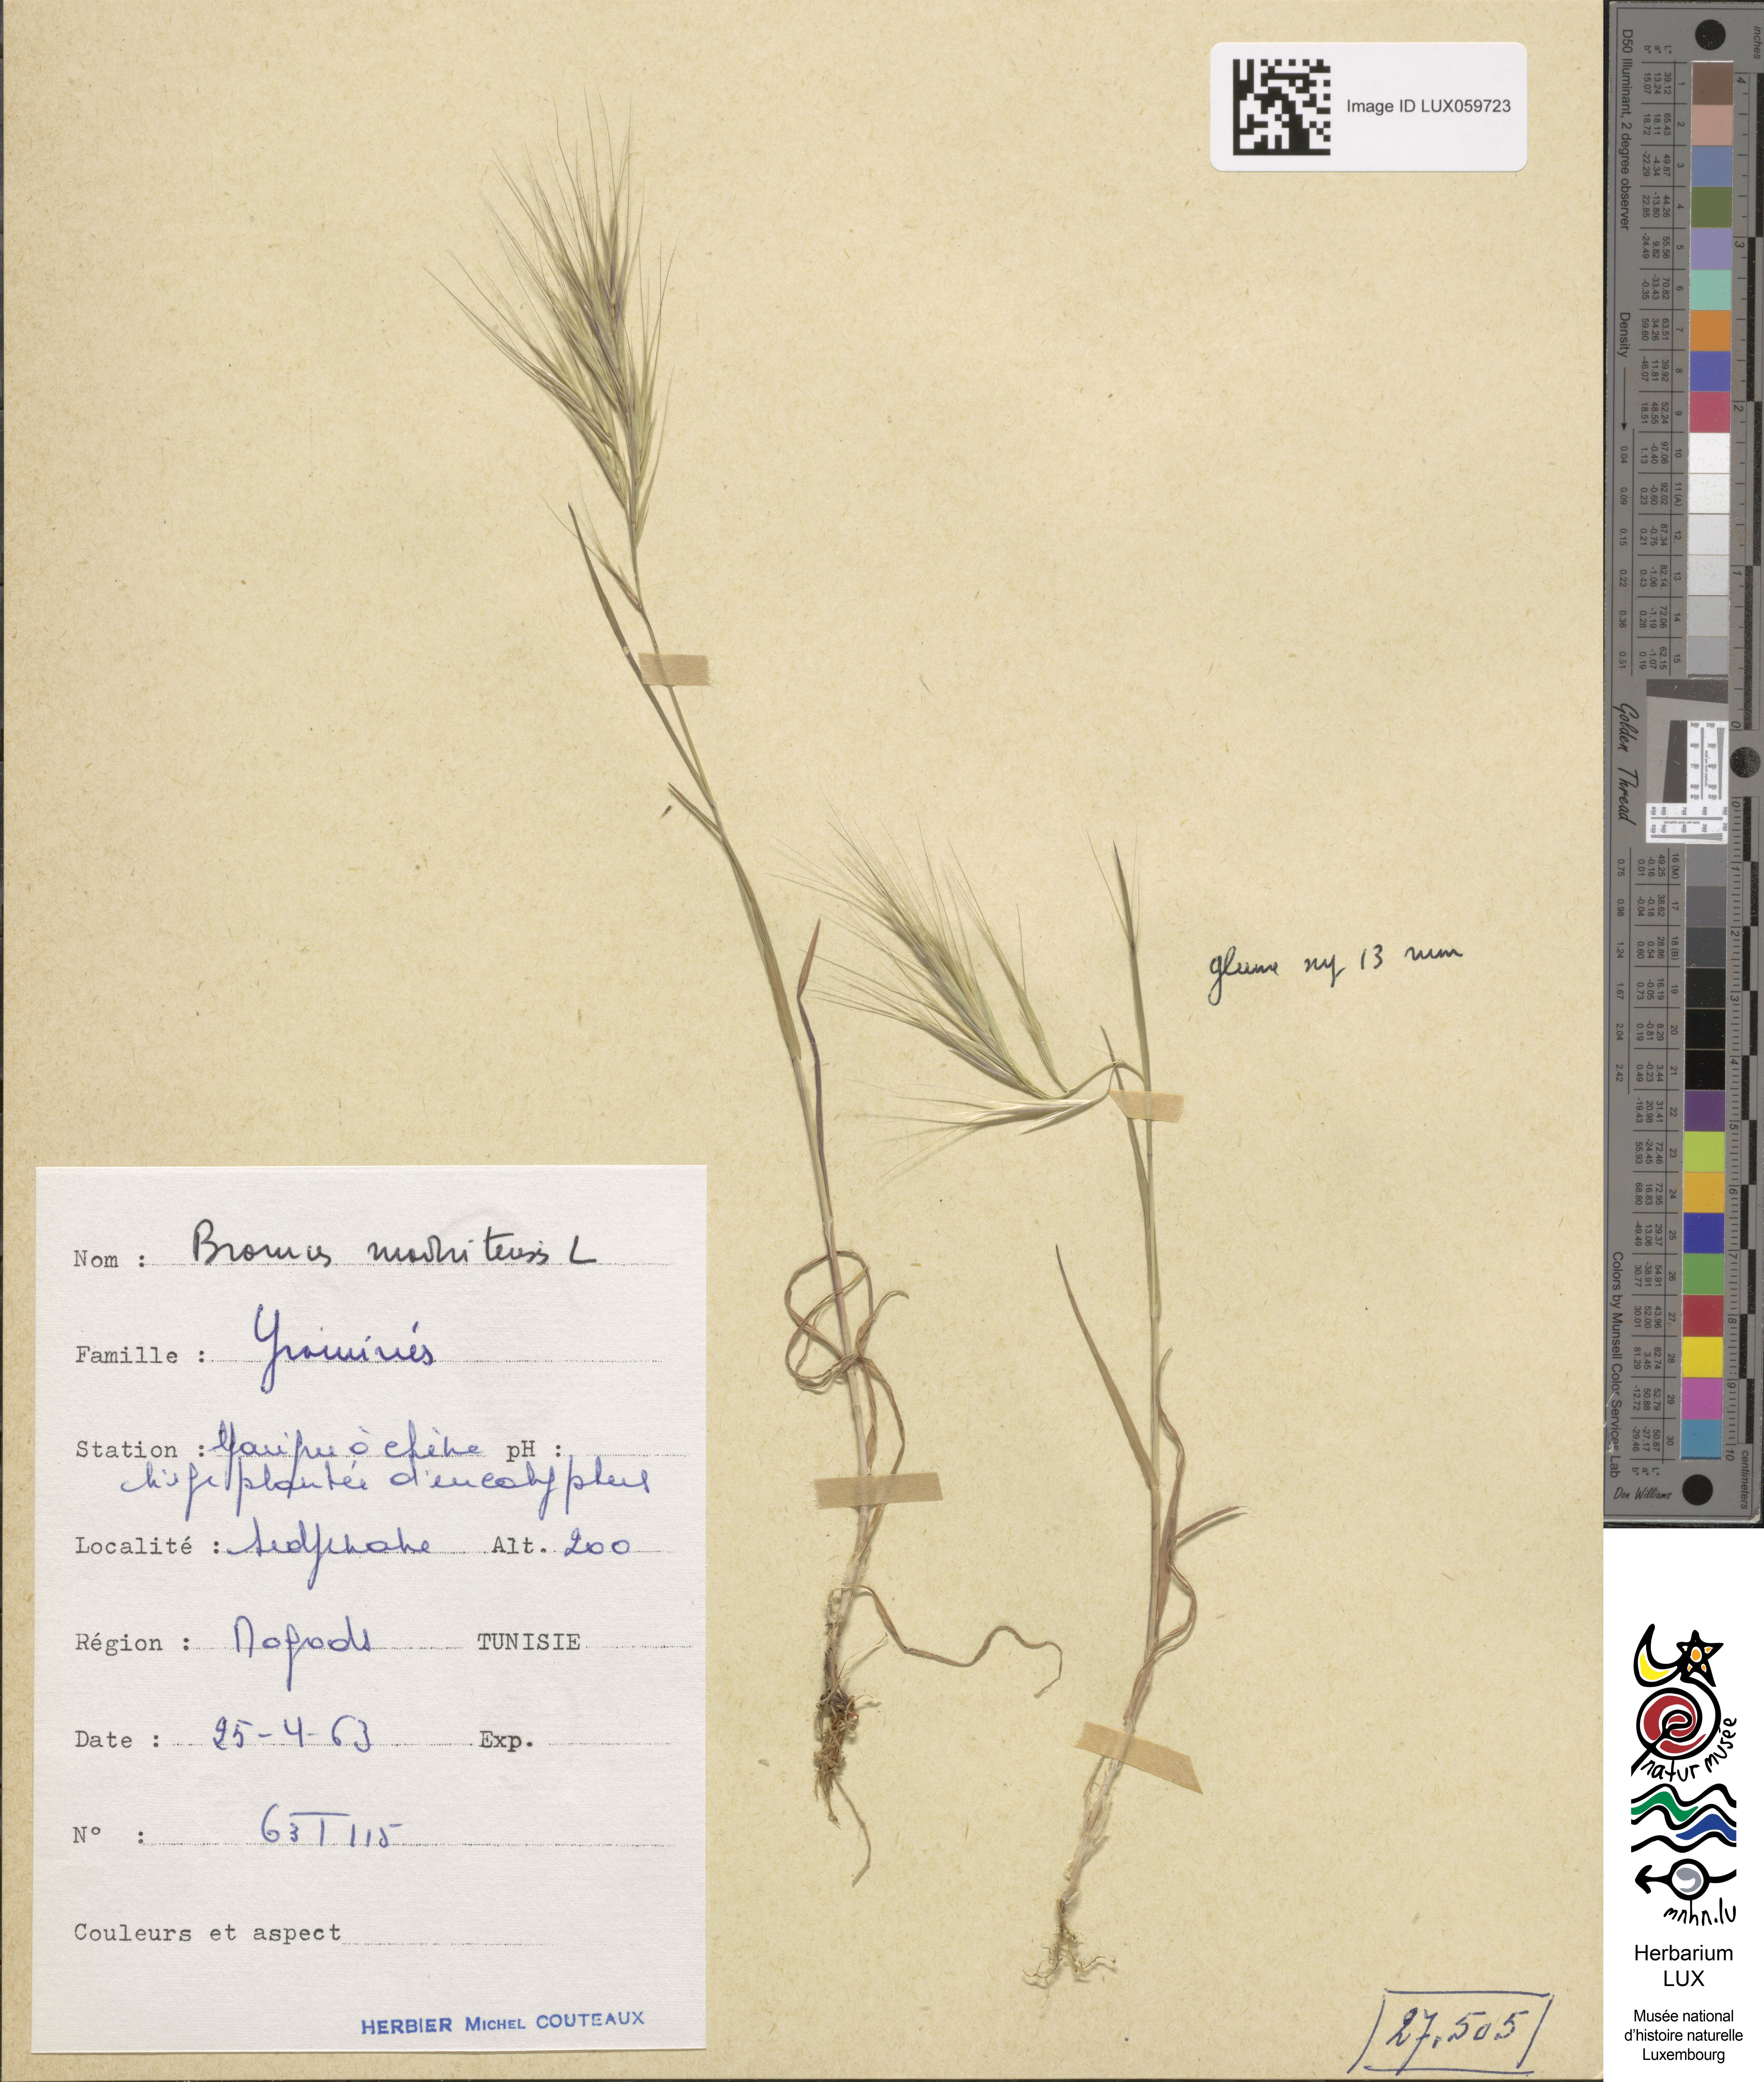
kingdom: Plantae
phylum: Tracheophyta
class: Liliopsida
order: Poales
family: Poaceae
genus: Bromus
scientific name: Bromus madritensis
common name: Compact brome
